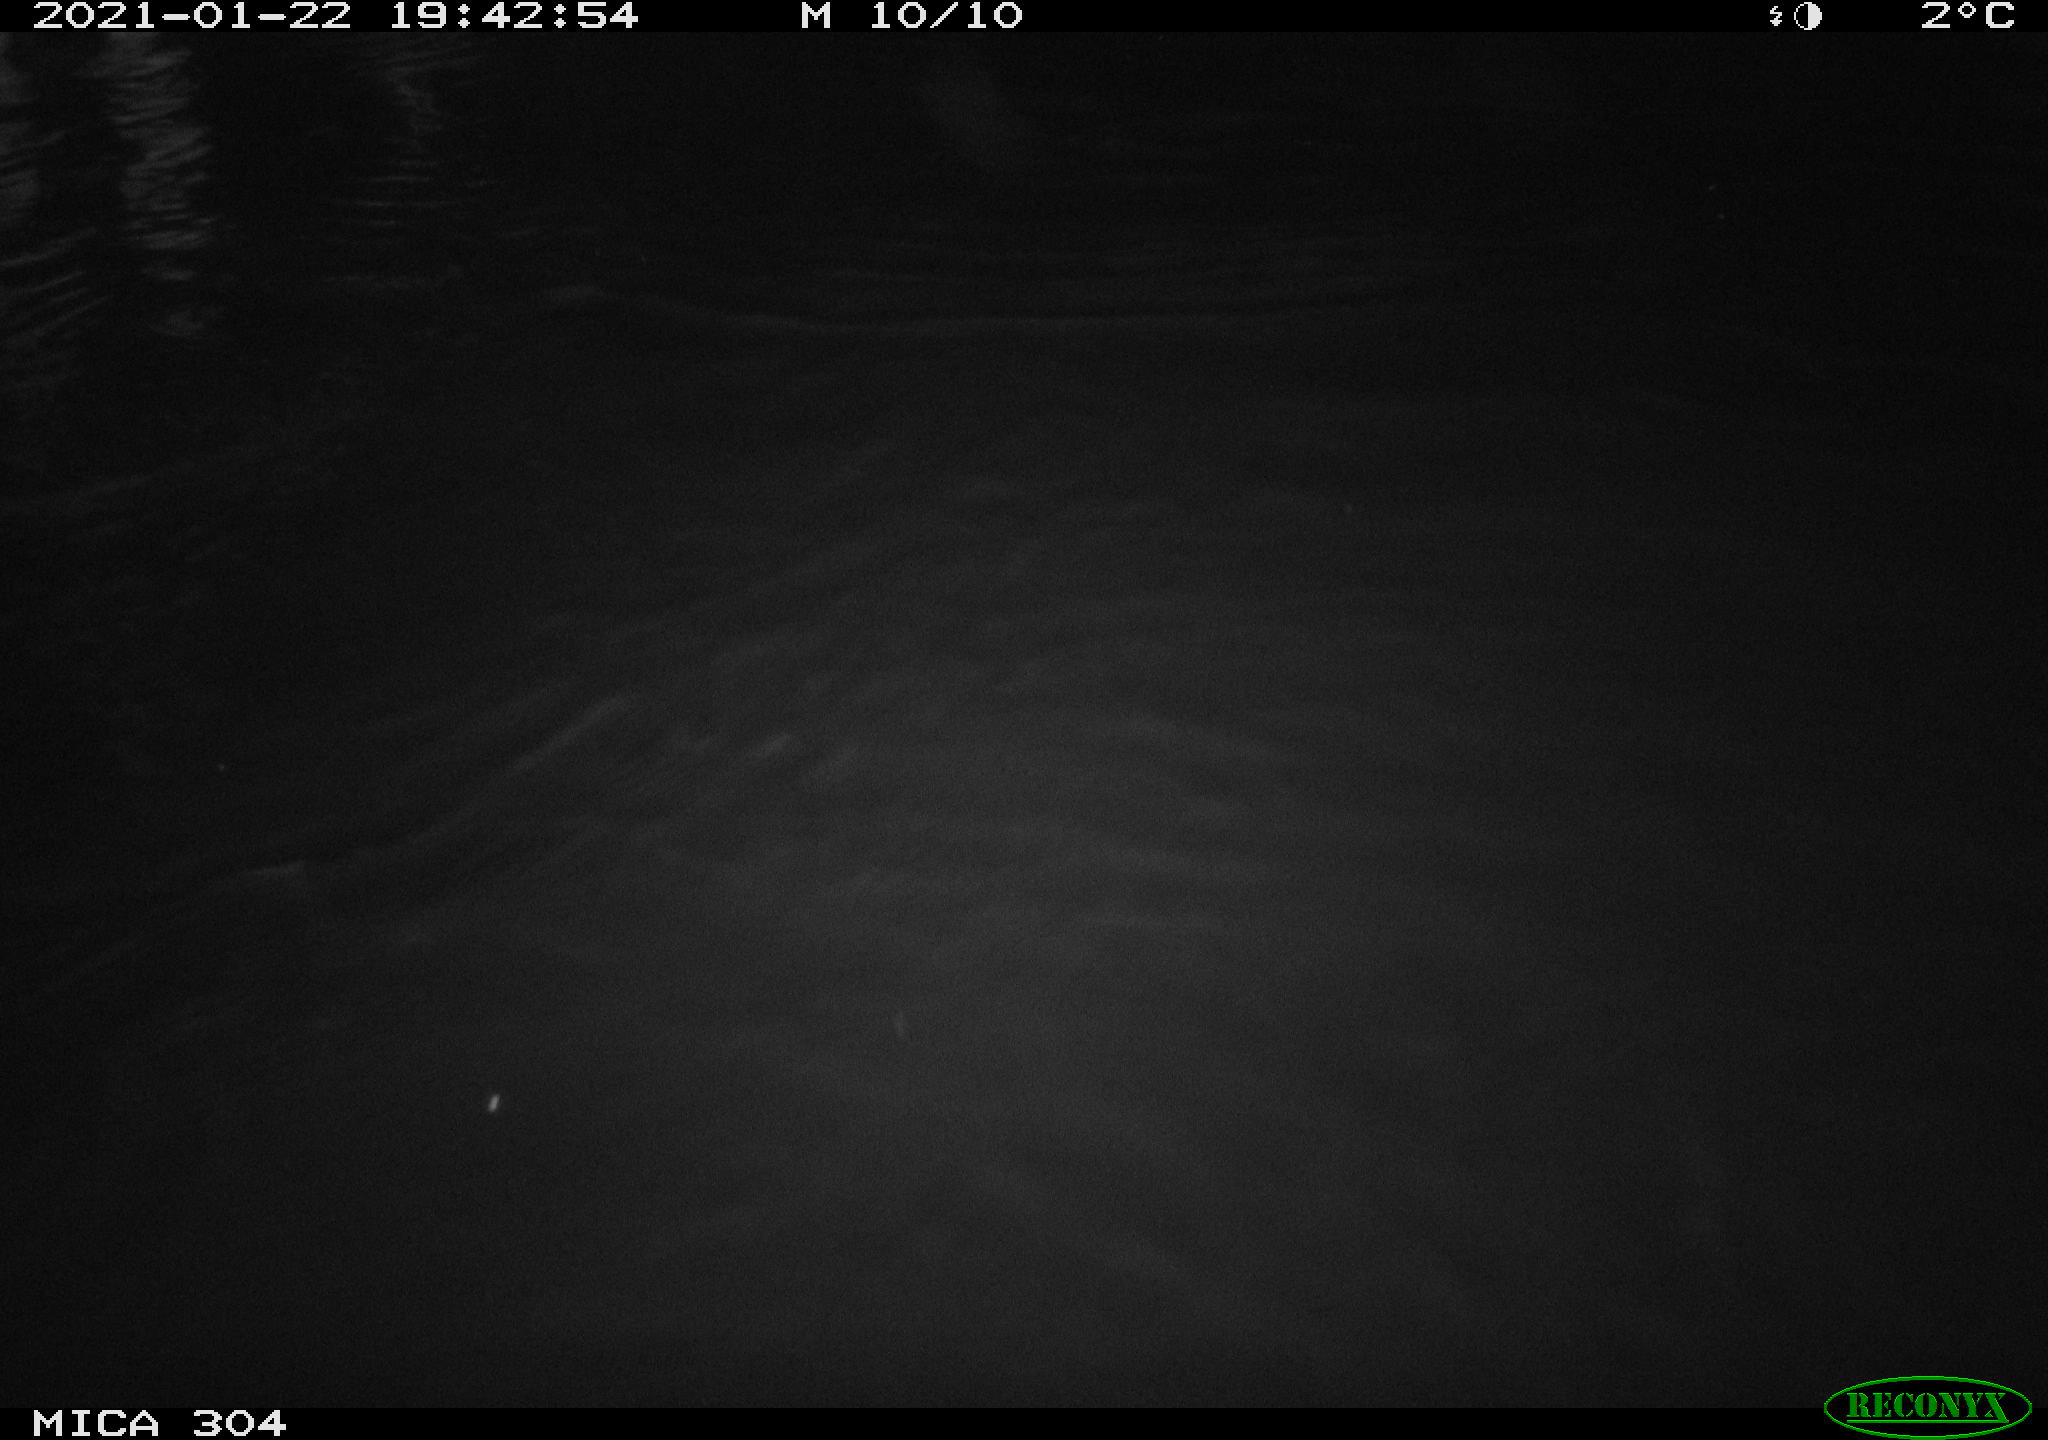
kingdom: Animalia
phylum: Chordata
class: Mammalia
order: Rodentia
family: Cricetidae
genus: Ondatra
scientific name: Ondatra zibethicus
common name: Muskrat
